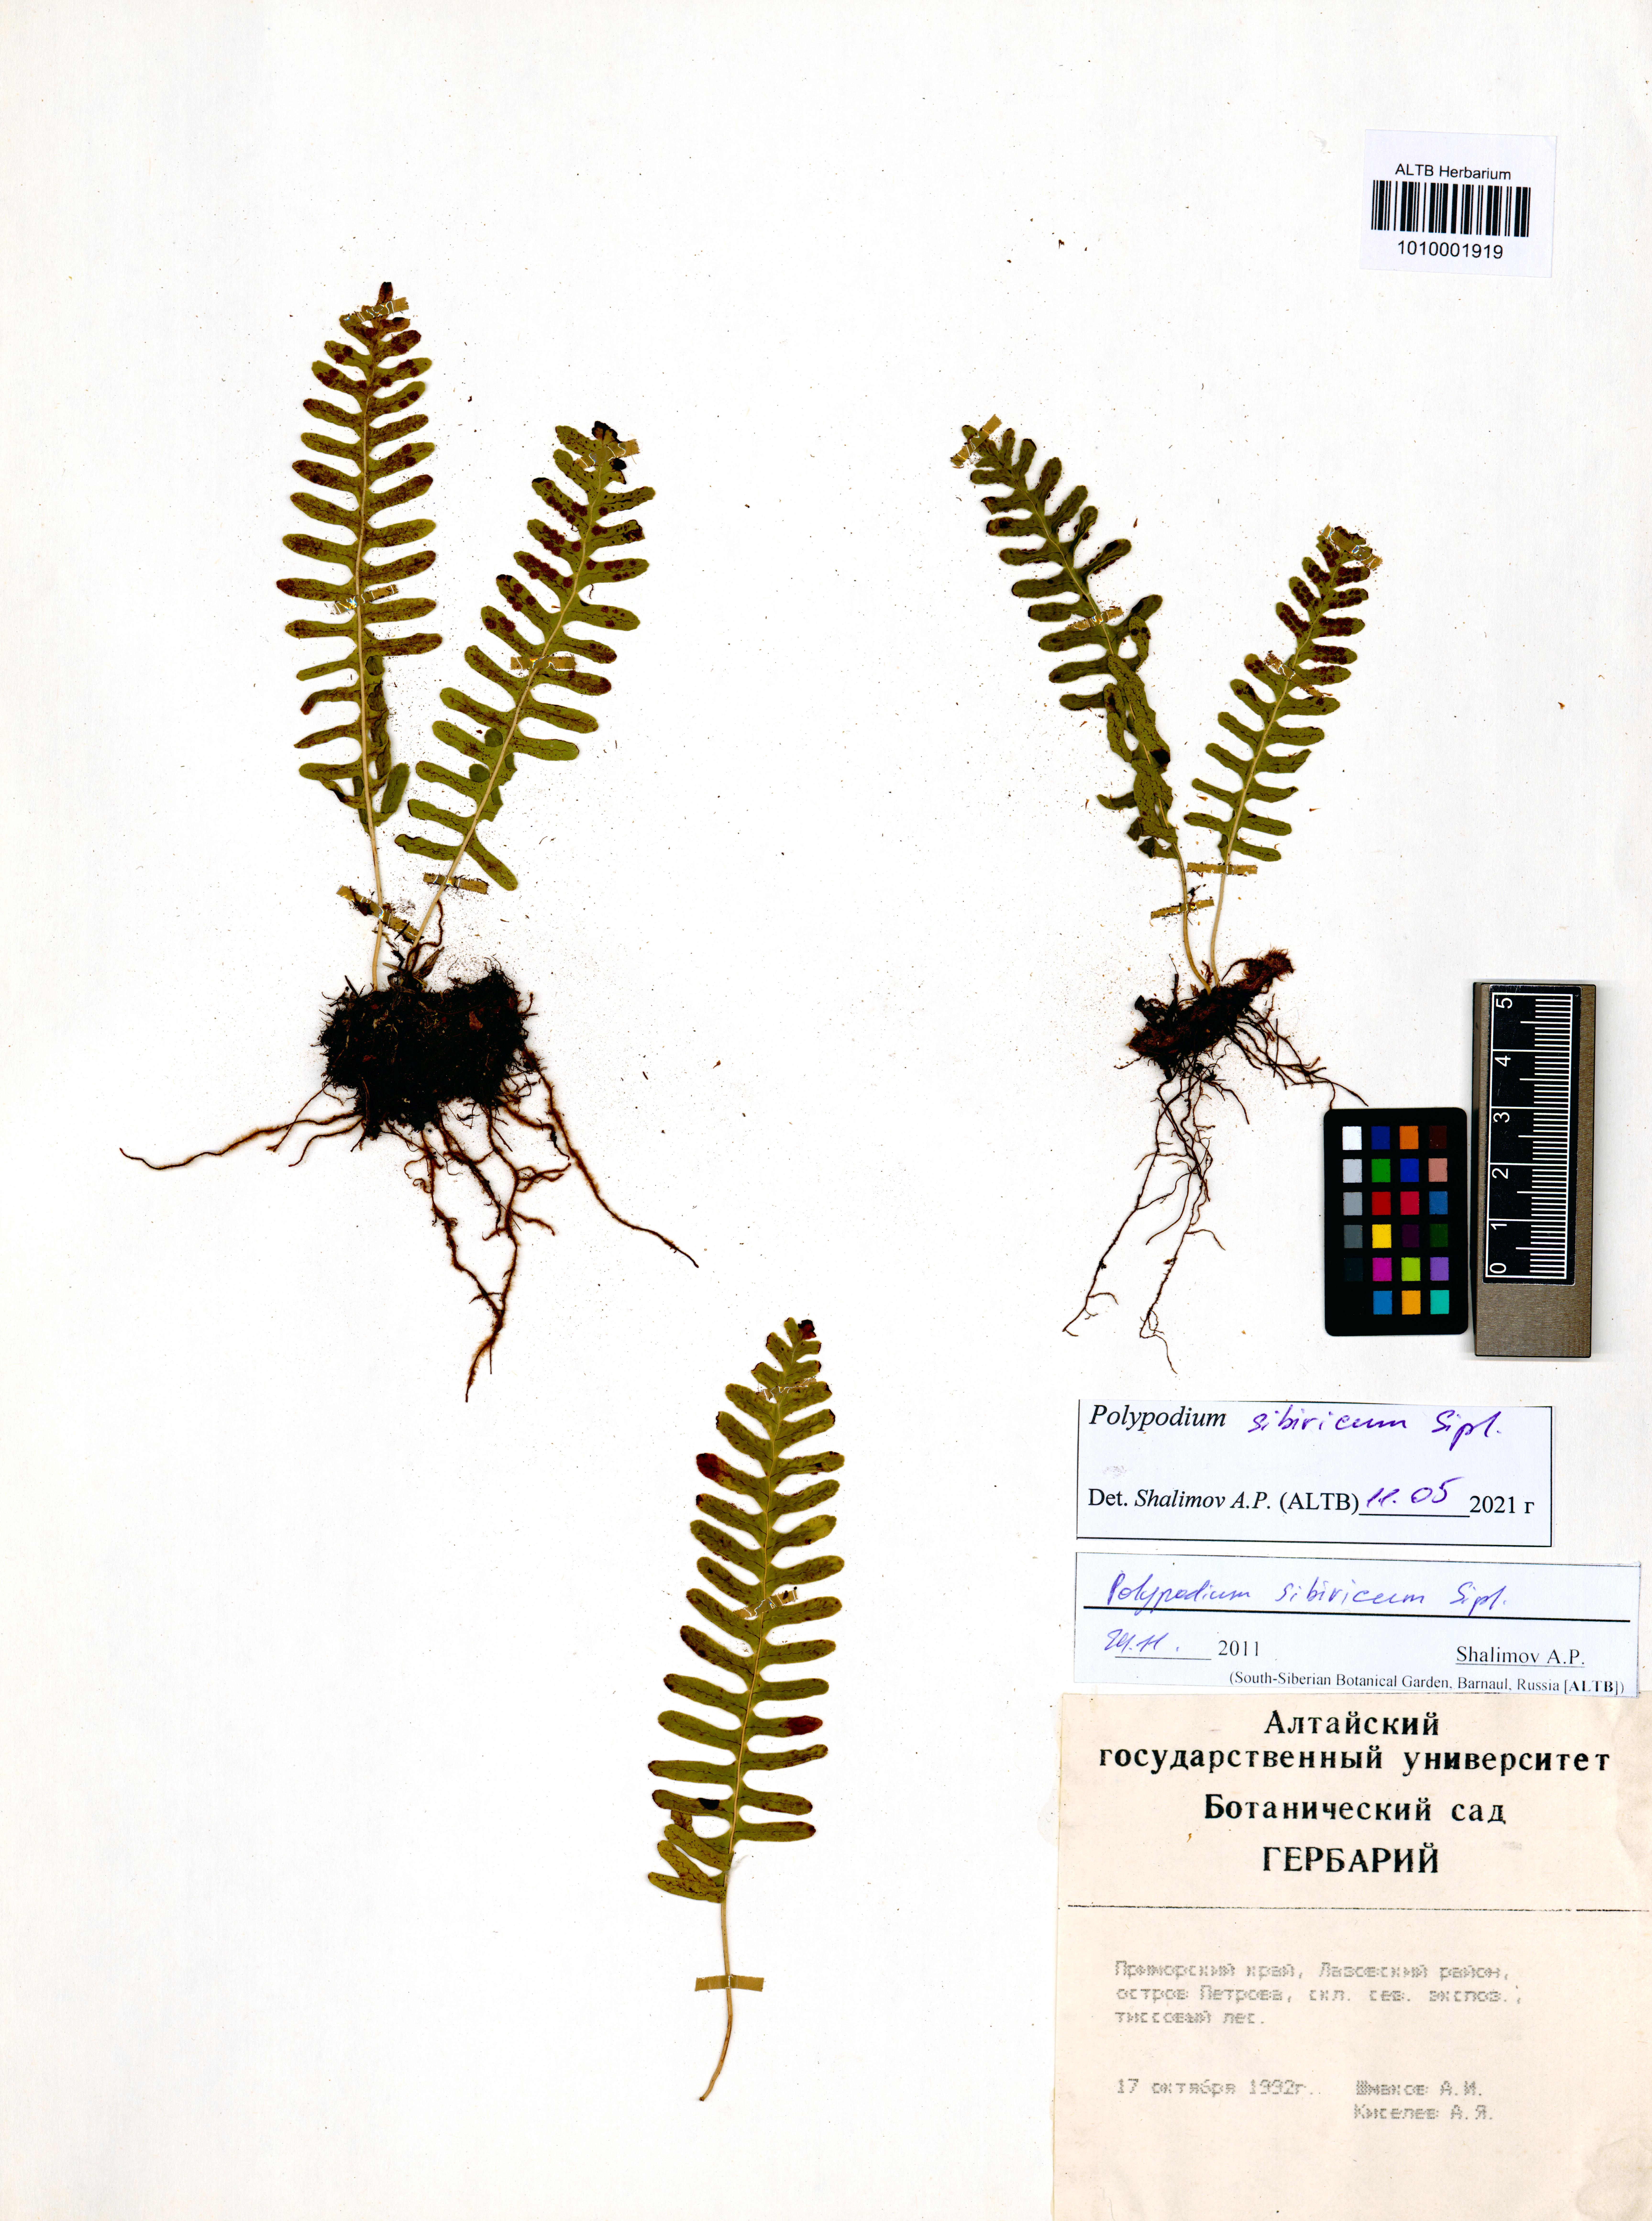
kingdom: Plantae
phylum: Tracheophyta
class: Polypodiopsida
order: Polypodiales
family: Polypodiaceae
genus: Polypodium
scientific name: Polypodium sibiricum
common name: Siberian polypody
